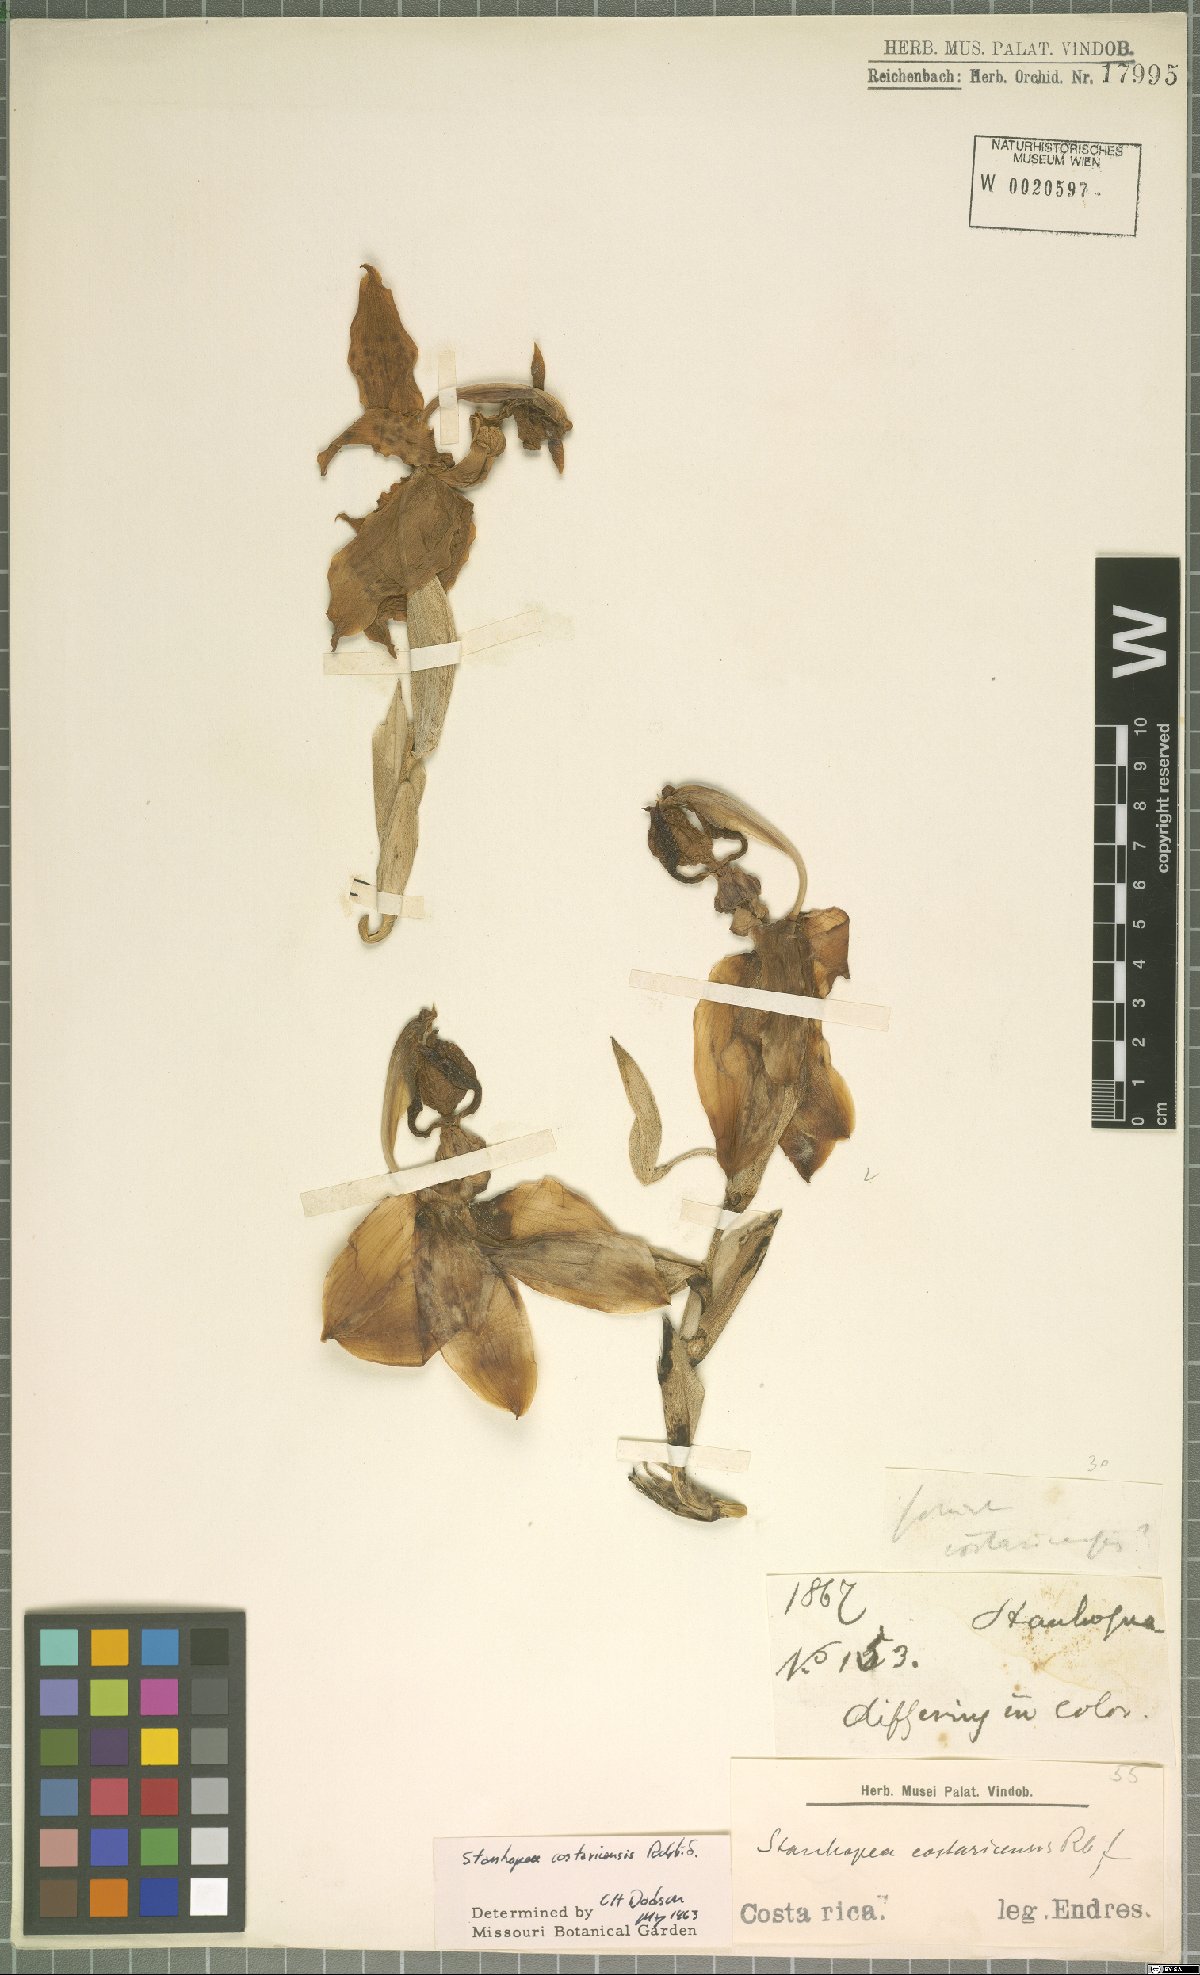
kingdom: Plantae
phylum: Tracheophyta
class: Liliopsida
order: Asparagales
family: Orchidaceae
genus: Stanhopea
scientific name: Stanhopea costaricensis
